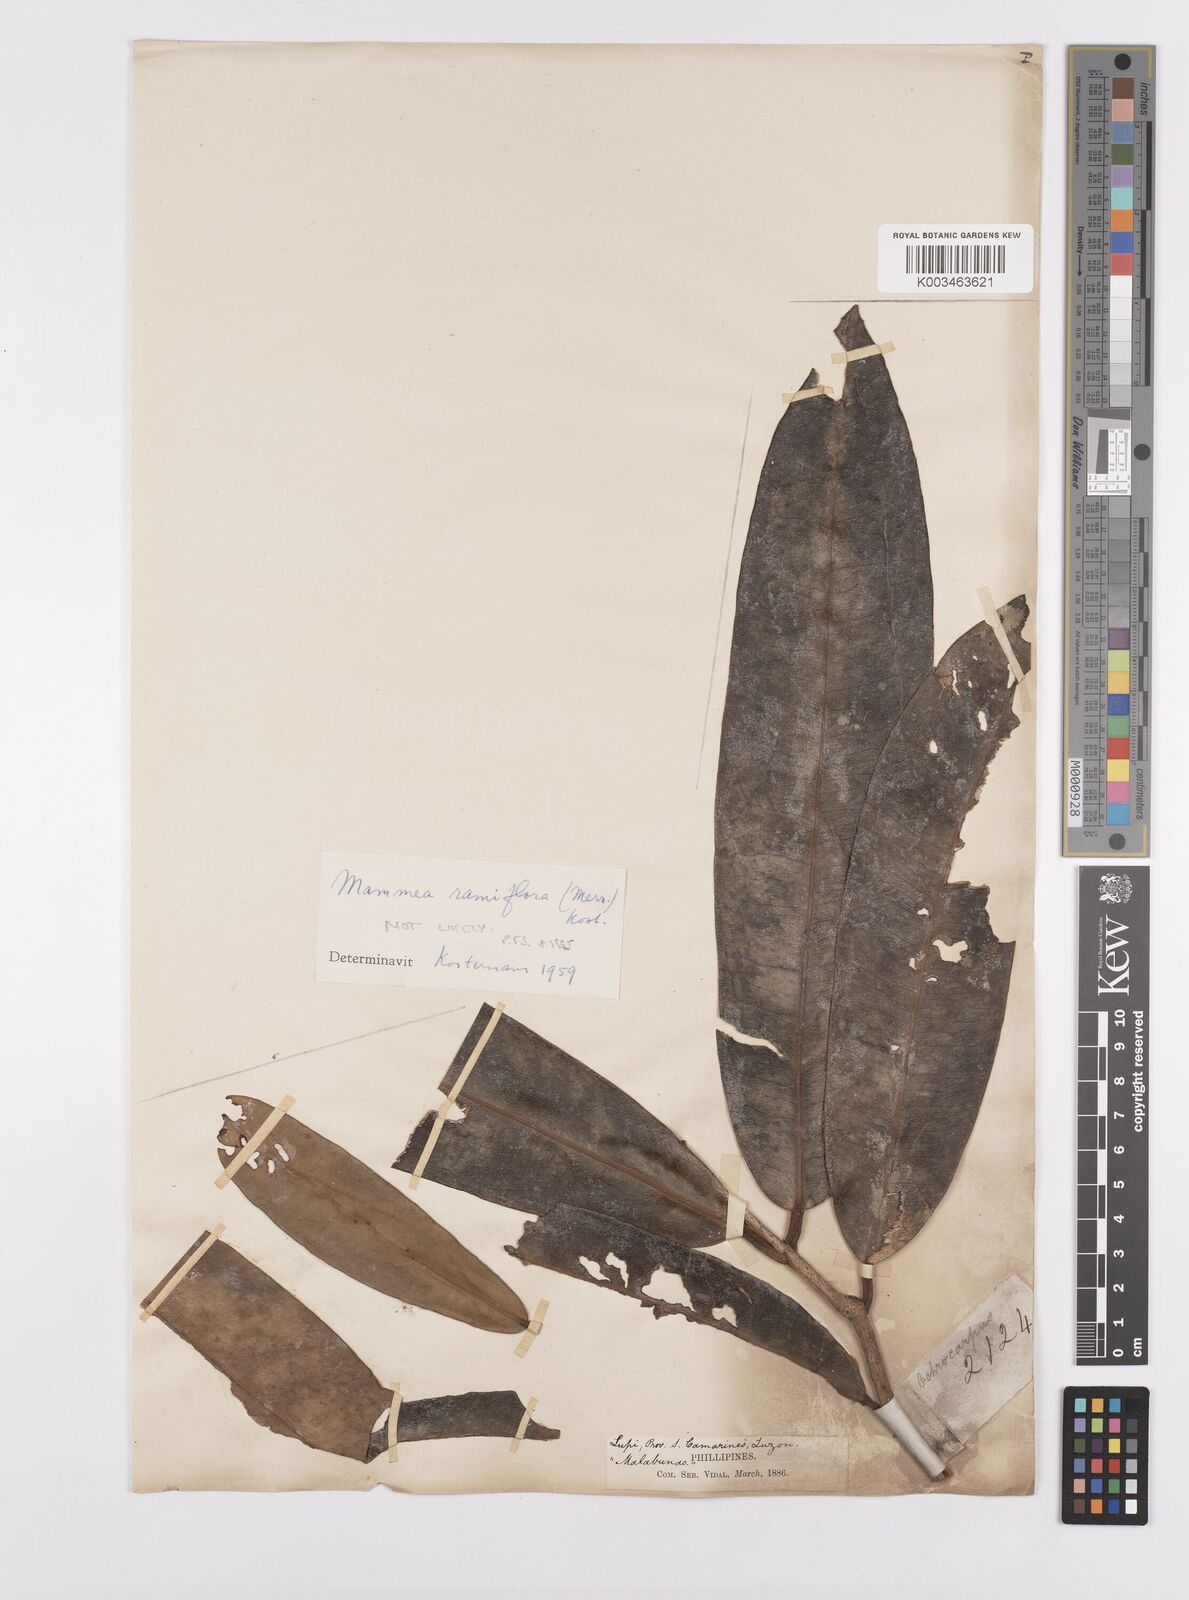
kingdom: Plantae
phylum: Tracheophyta
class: Magnoliopsida
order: Malpighiales
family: Calophyllaceae
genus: Mammea
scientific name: Mammea ramiflora
